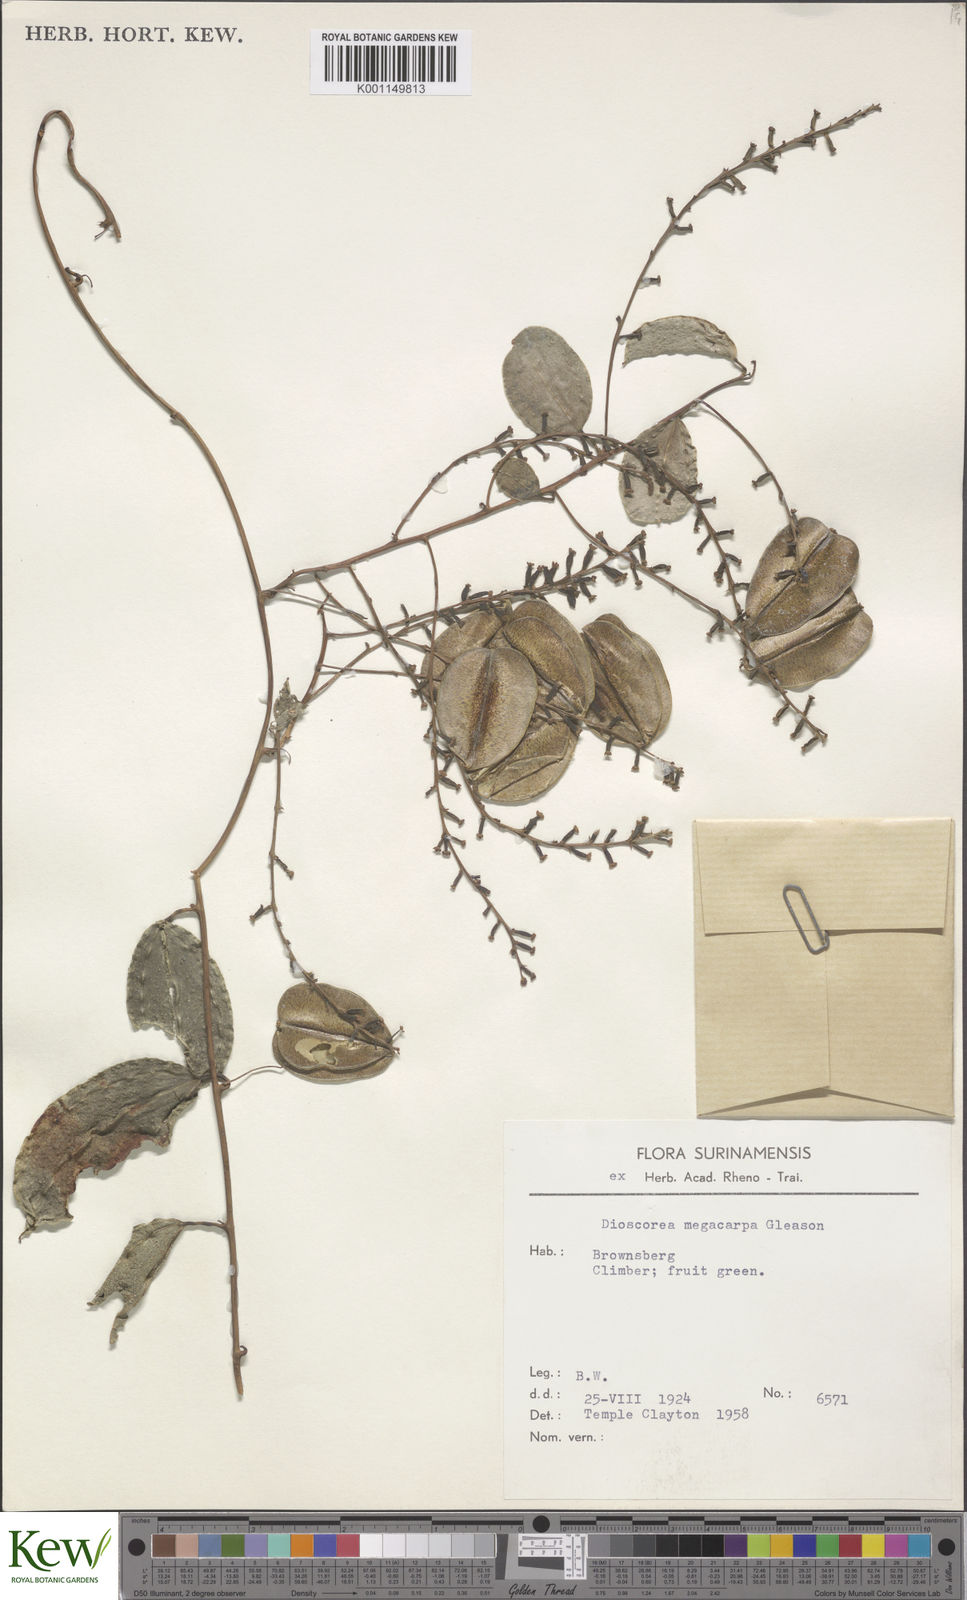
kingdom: Plantae
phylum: Tracheophyta
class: Liliopsida
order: Dioscoreales
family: Dioscoreaceae
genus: Dioscorea
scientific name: Dioscorea marginata
